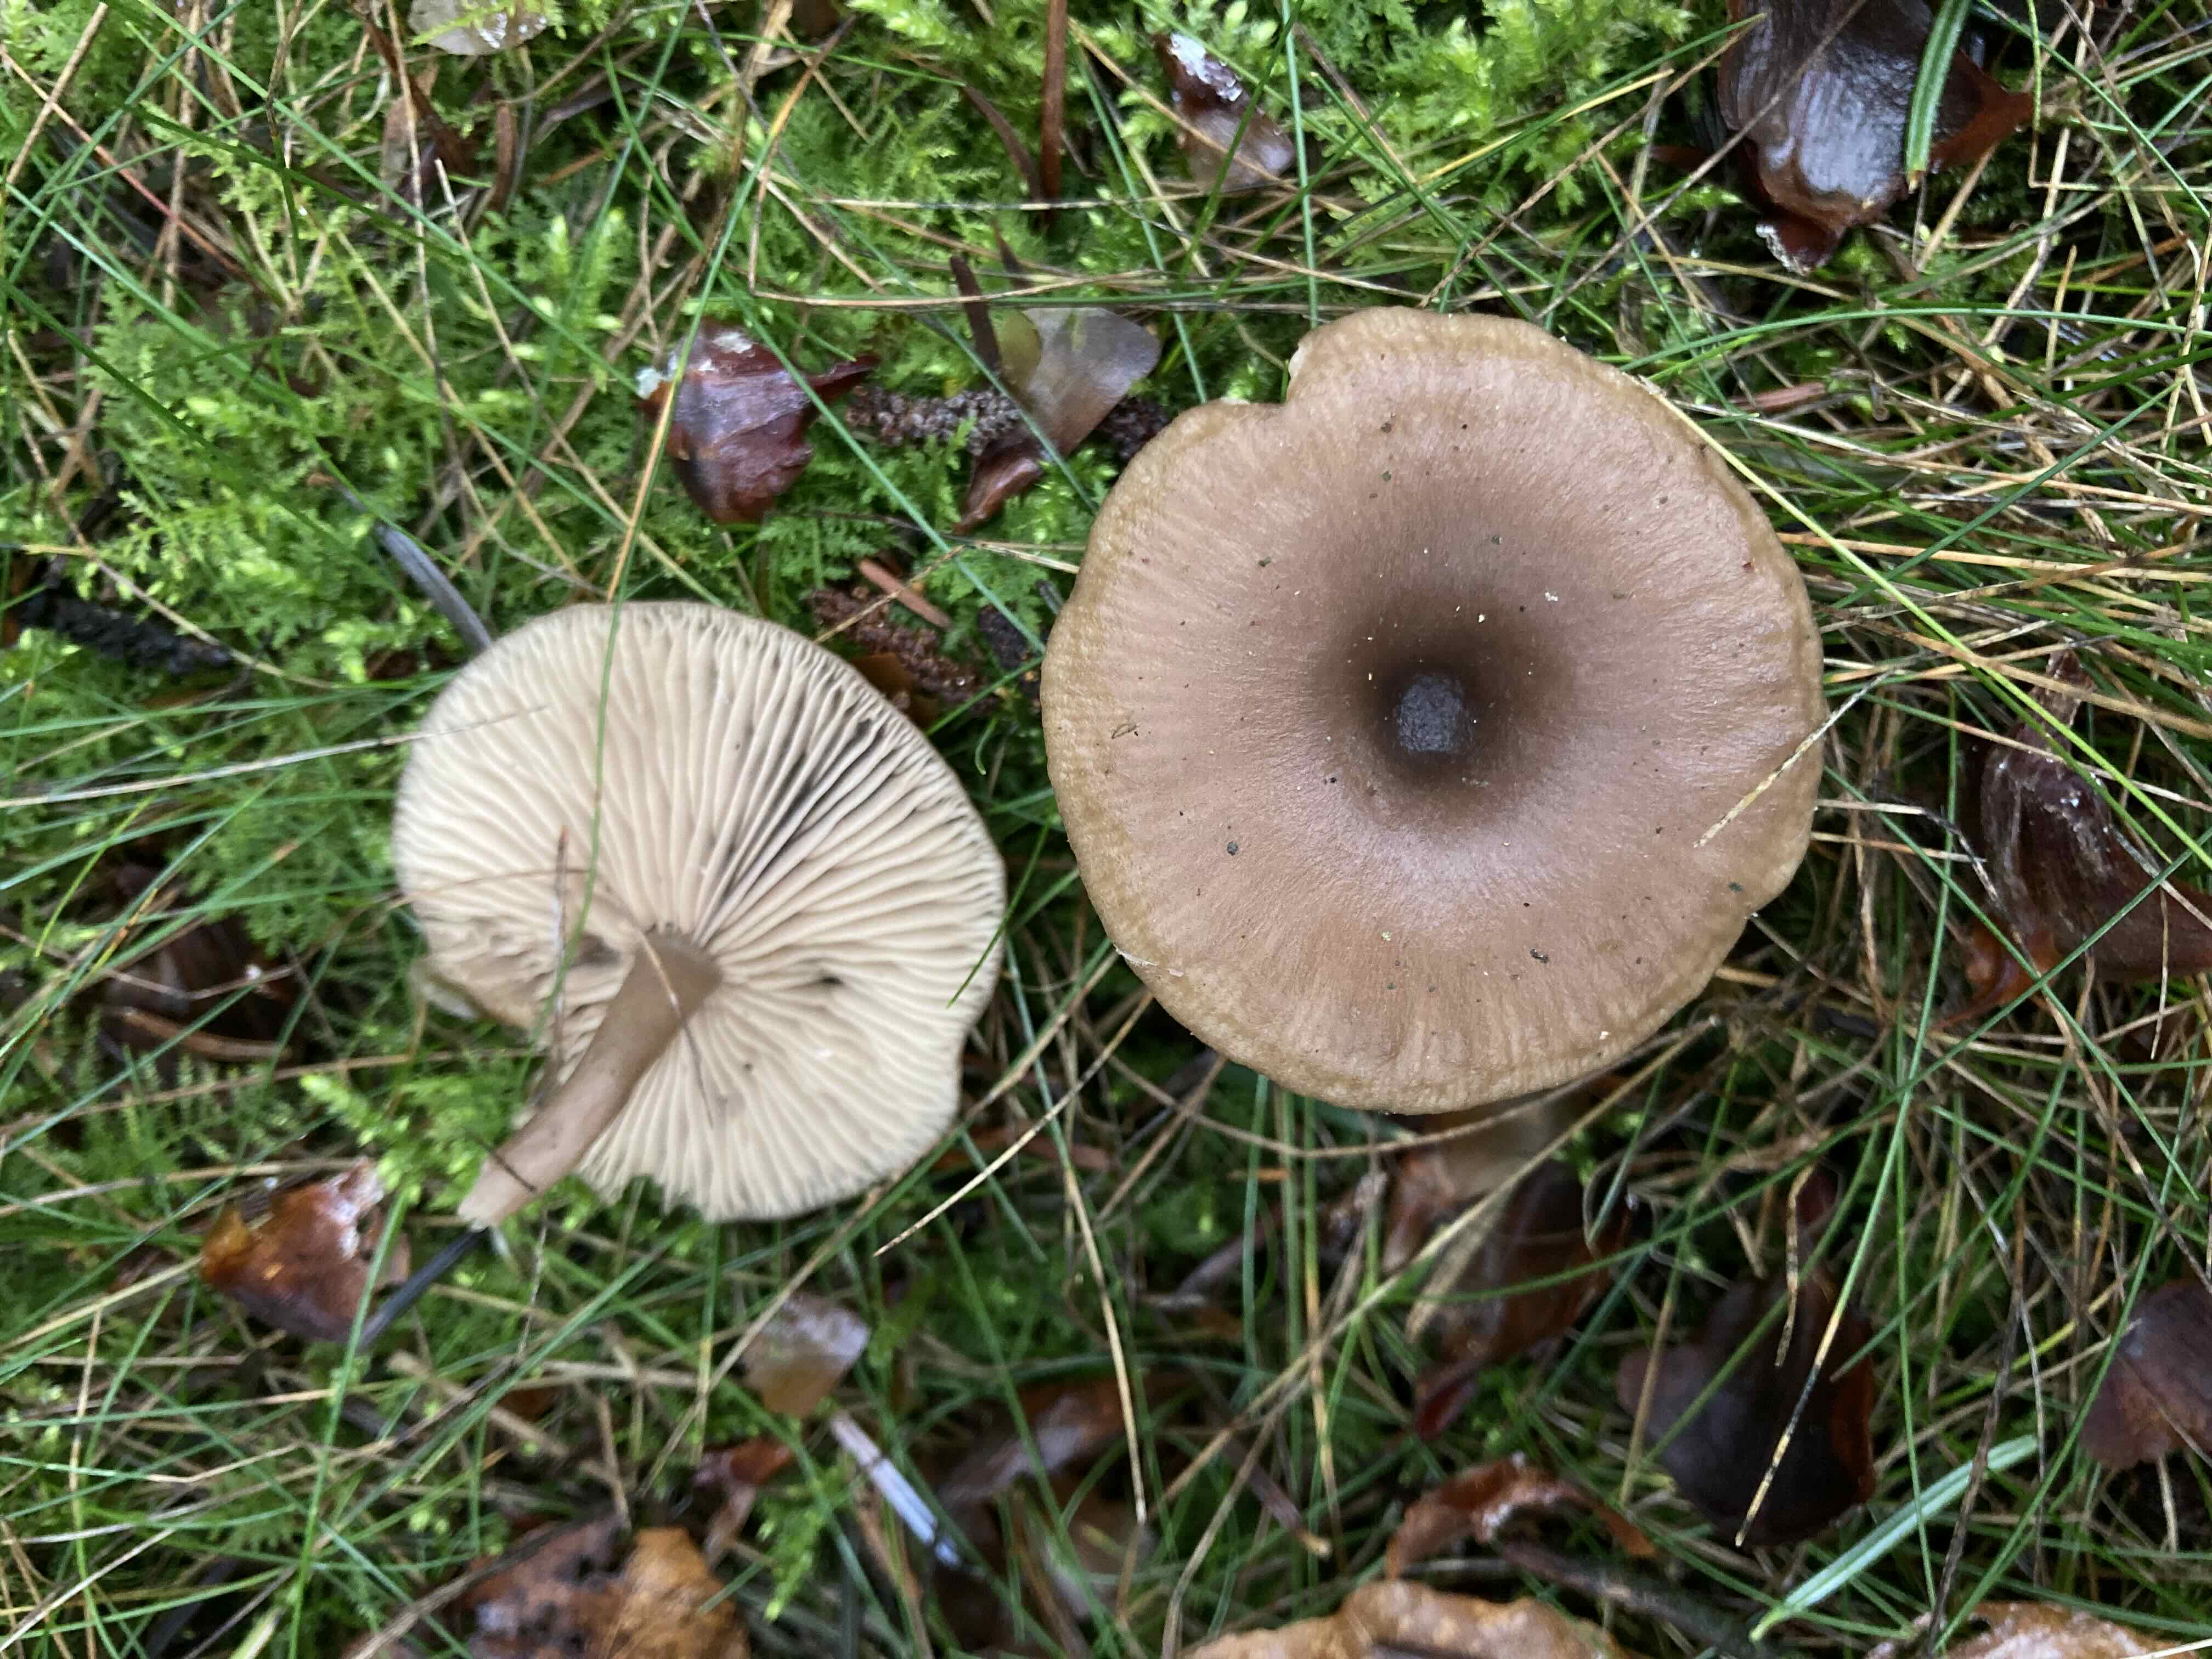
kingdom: Fungi
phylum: Basidiomycota
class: Agaricomycetes
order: Agaricales
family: Pseudoclitocybaceae
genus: Pseudoclitocybe
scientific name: Pseudoclitocybe cyathiformis
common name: almindelig bægertragthat
